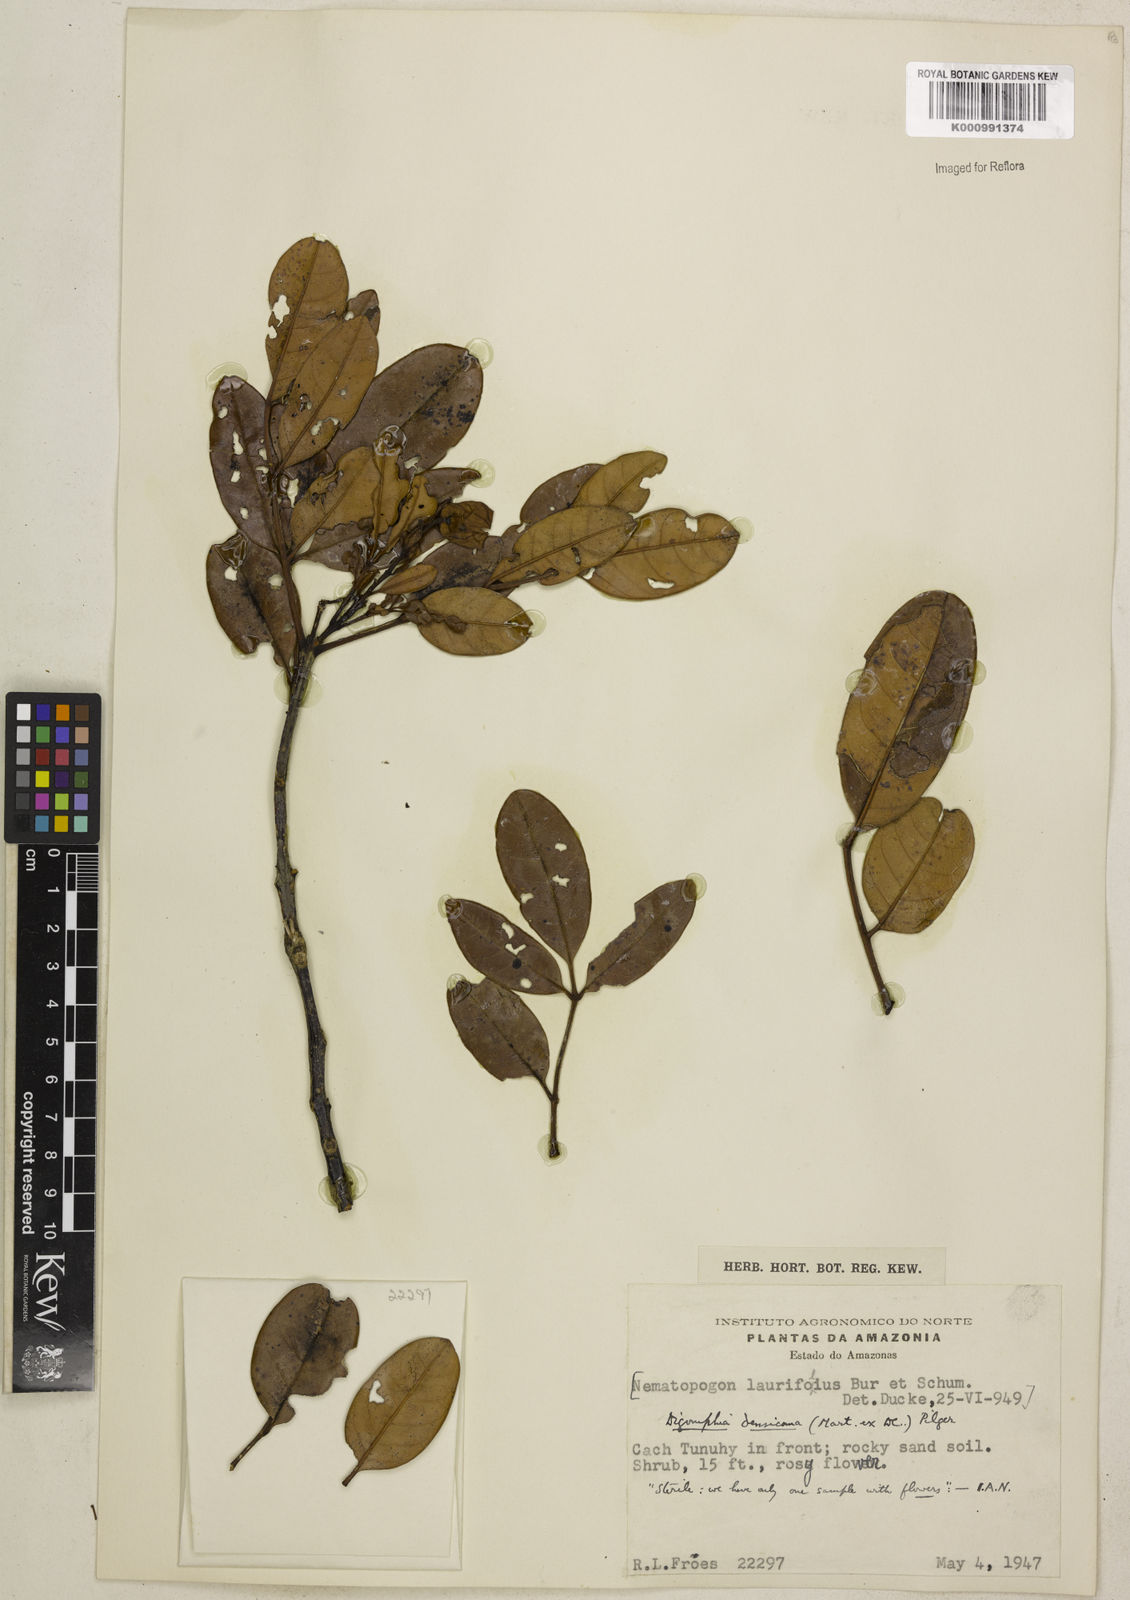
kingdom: Plantae
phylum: Tracheophyta
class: Magnoliopsida
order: Lamiales
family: Bignoniaceae
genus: Digomphia
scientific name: Digomphia densicoma
